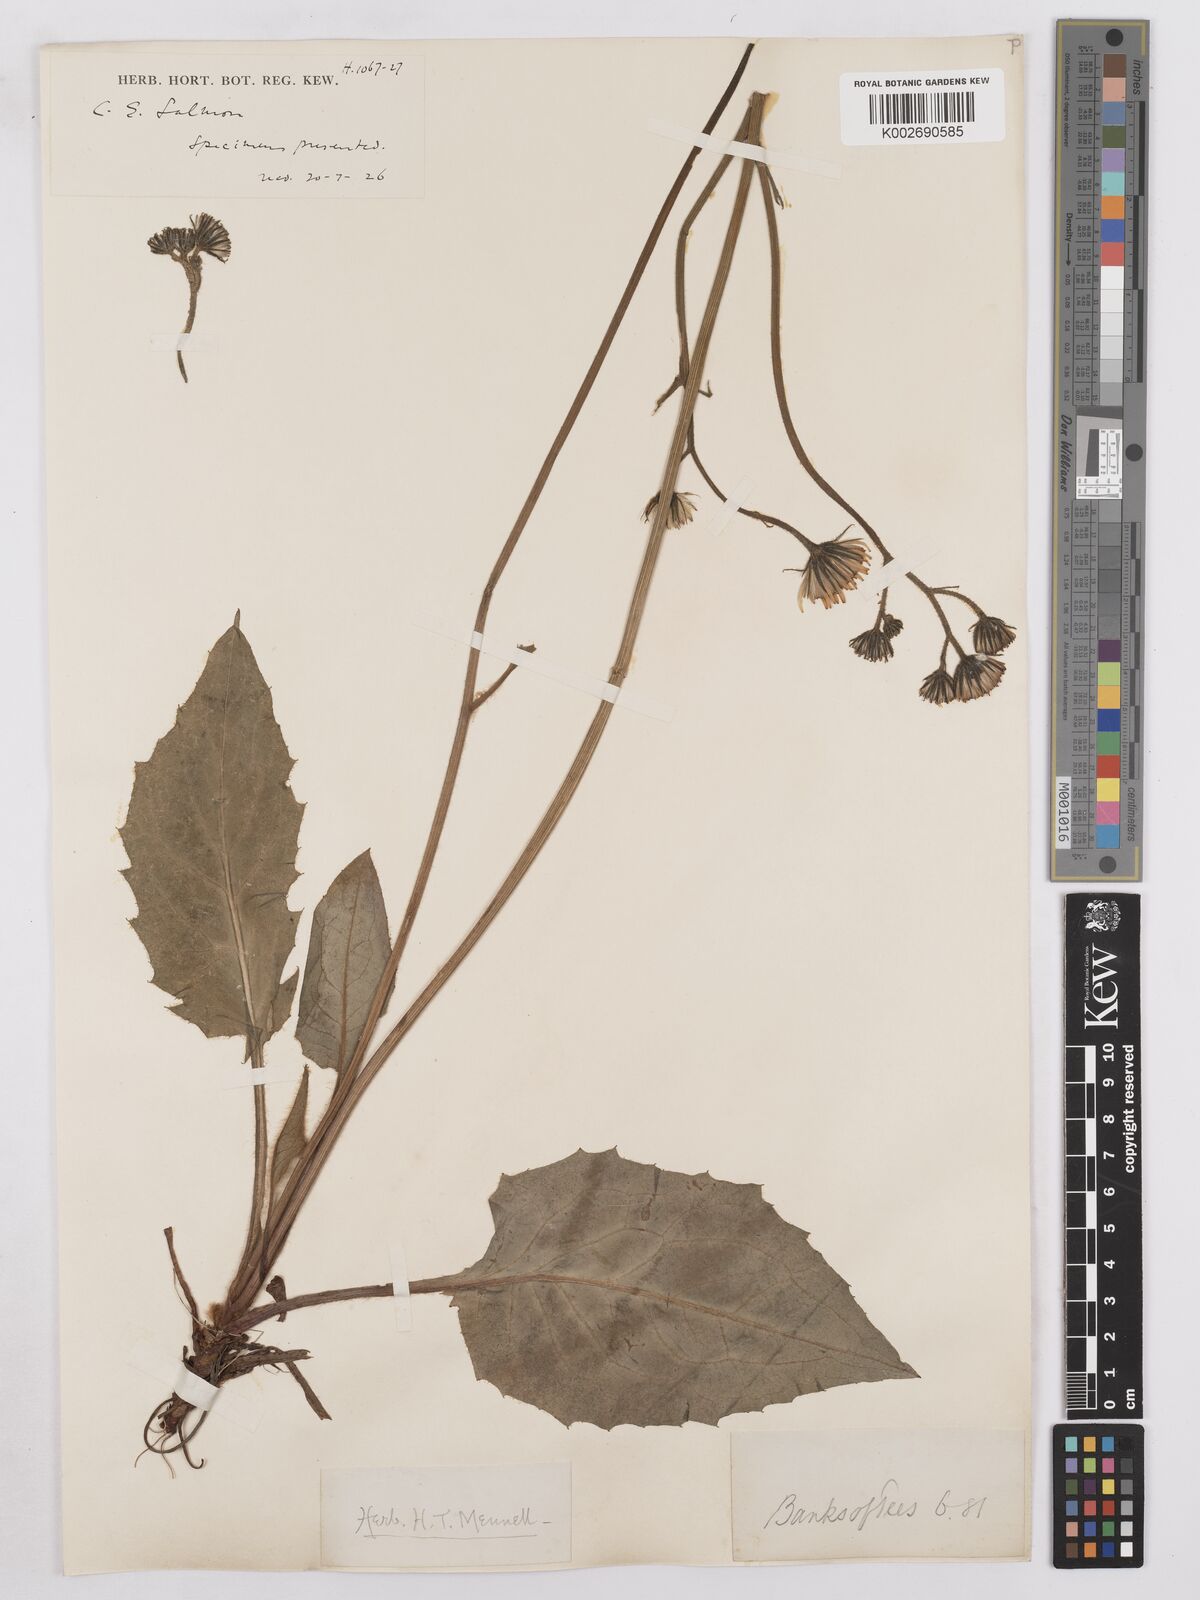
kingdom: Plantae
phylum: Tracheophyta
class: Magnoliopsida
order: Asterales
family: Asteraceae
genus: Hieracium
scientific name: Hieracium subbritannicum
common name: Limestone hawkweed
